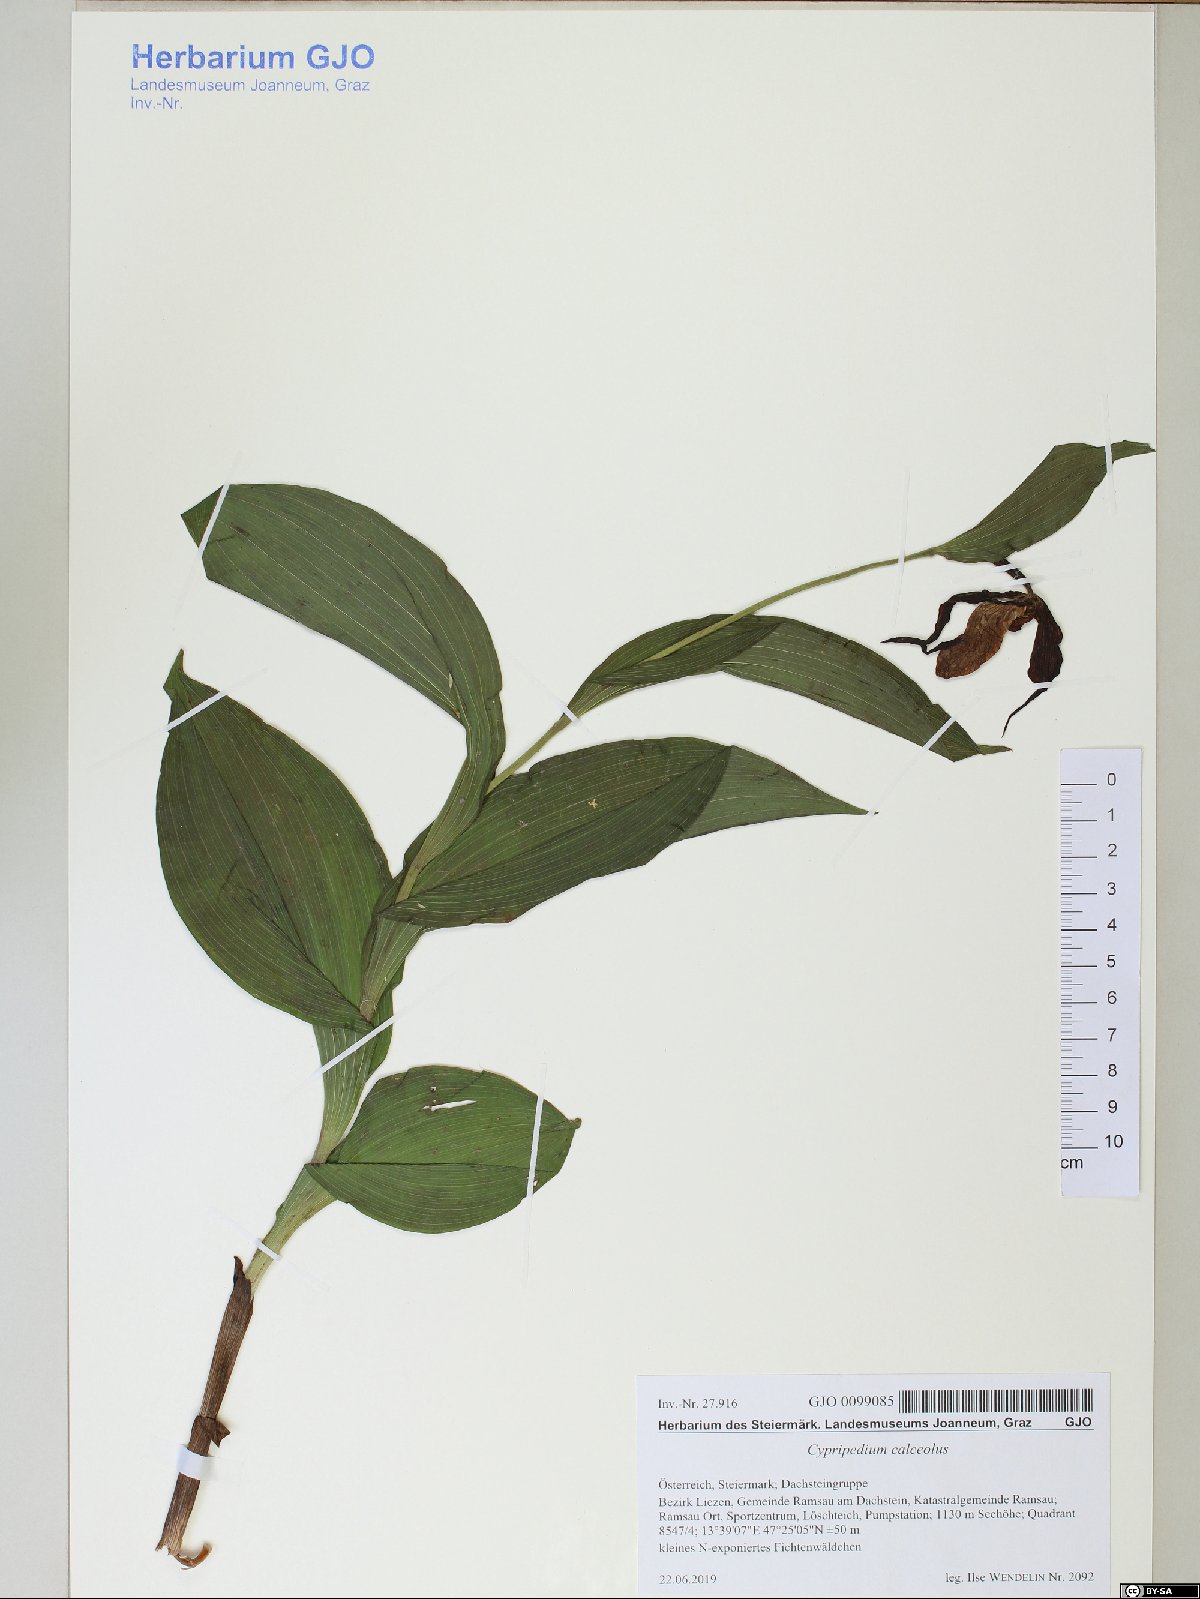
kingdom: Plantae
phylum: Tracheophyta
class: Liliopsida
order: Asparagales
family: Orchidaceae
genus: Cypripedium
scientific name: Cypripedium calceolus
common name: Lady's-slipper
